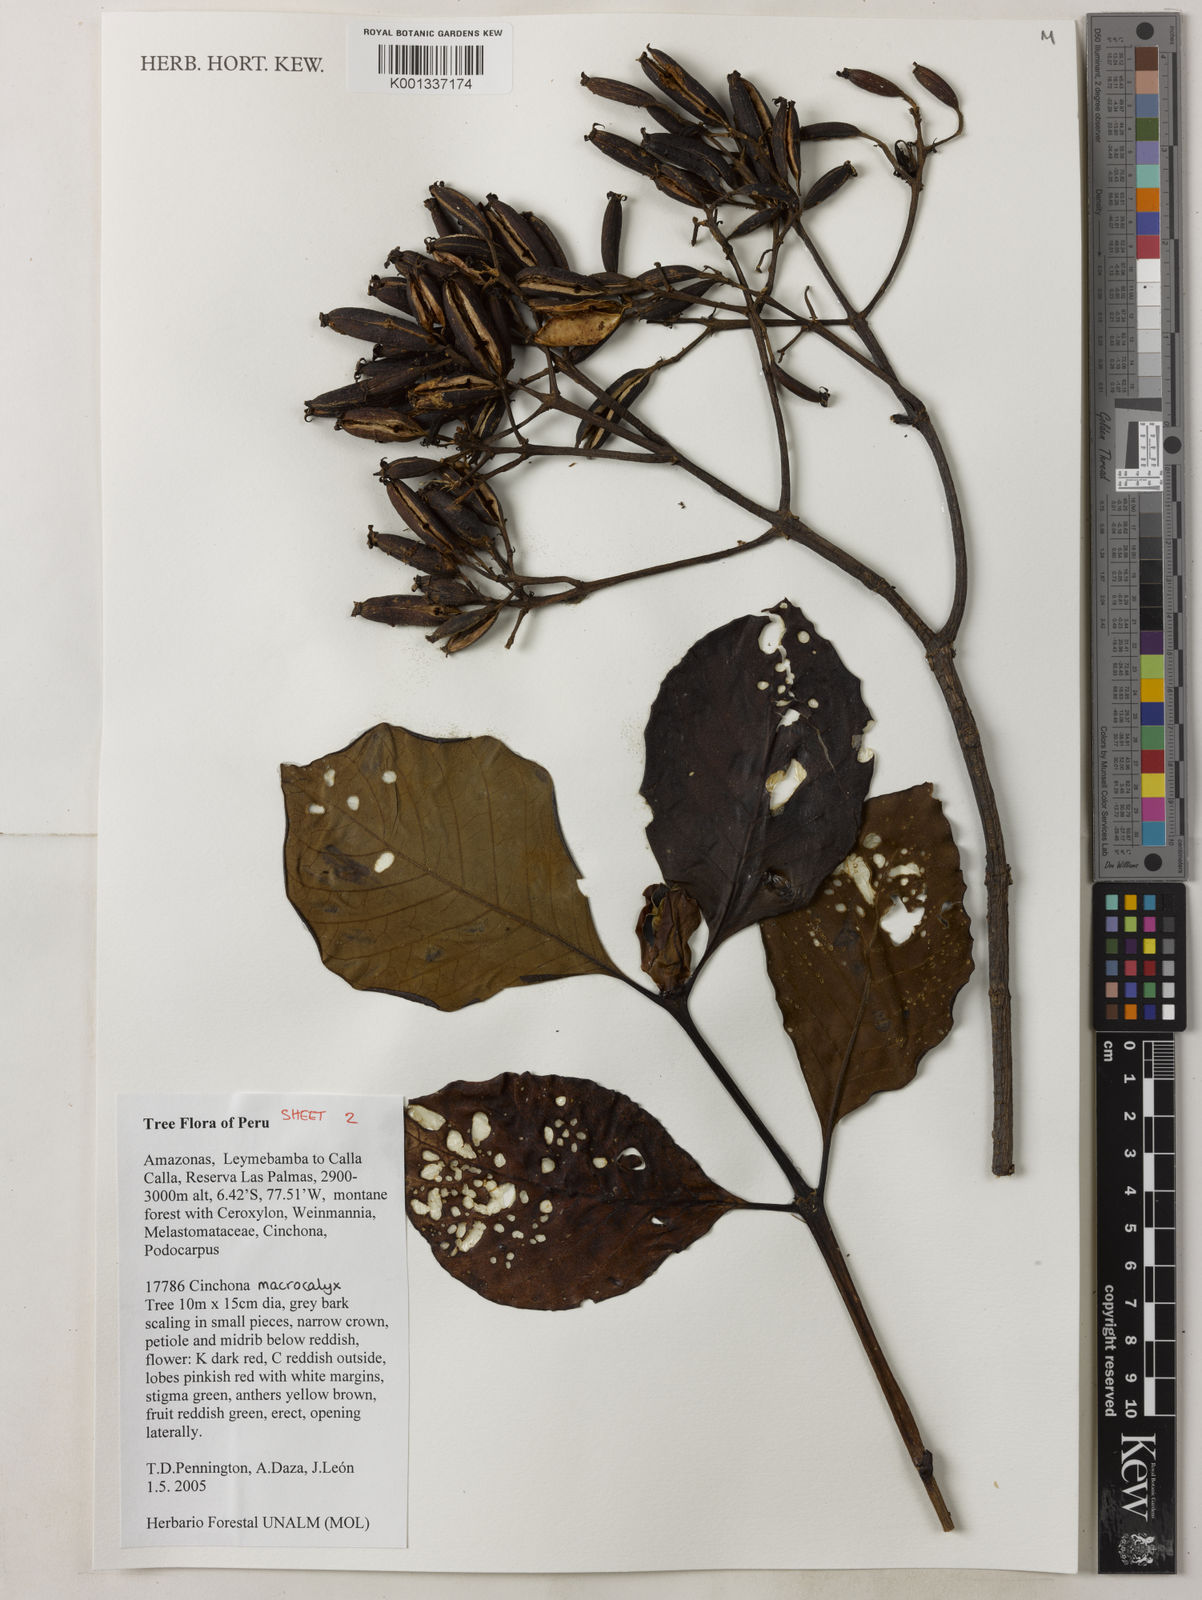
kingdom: Plantae
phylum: Tracheophyta
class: Magnoliopsida
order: Gentianales
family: Rubiaceae
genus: Cinchona
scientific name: Cinchona macrocalyx
